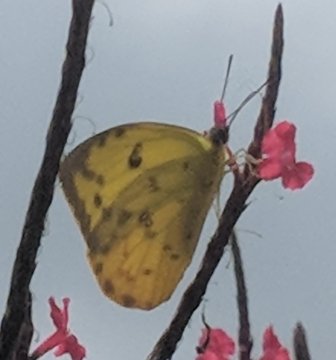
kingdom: Animalia
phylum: Arthropoda
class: Insecta
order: Lepidoptera
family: Pieridae
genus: Phoebis
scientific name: Phoebis philea
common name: Orange-barred Sulphur
